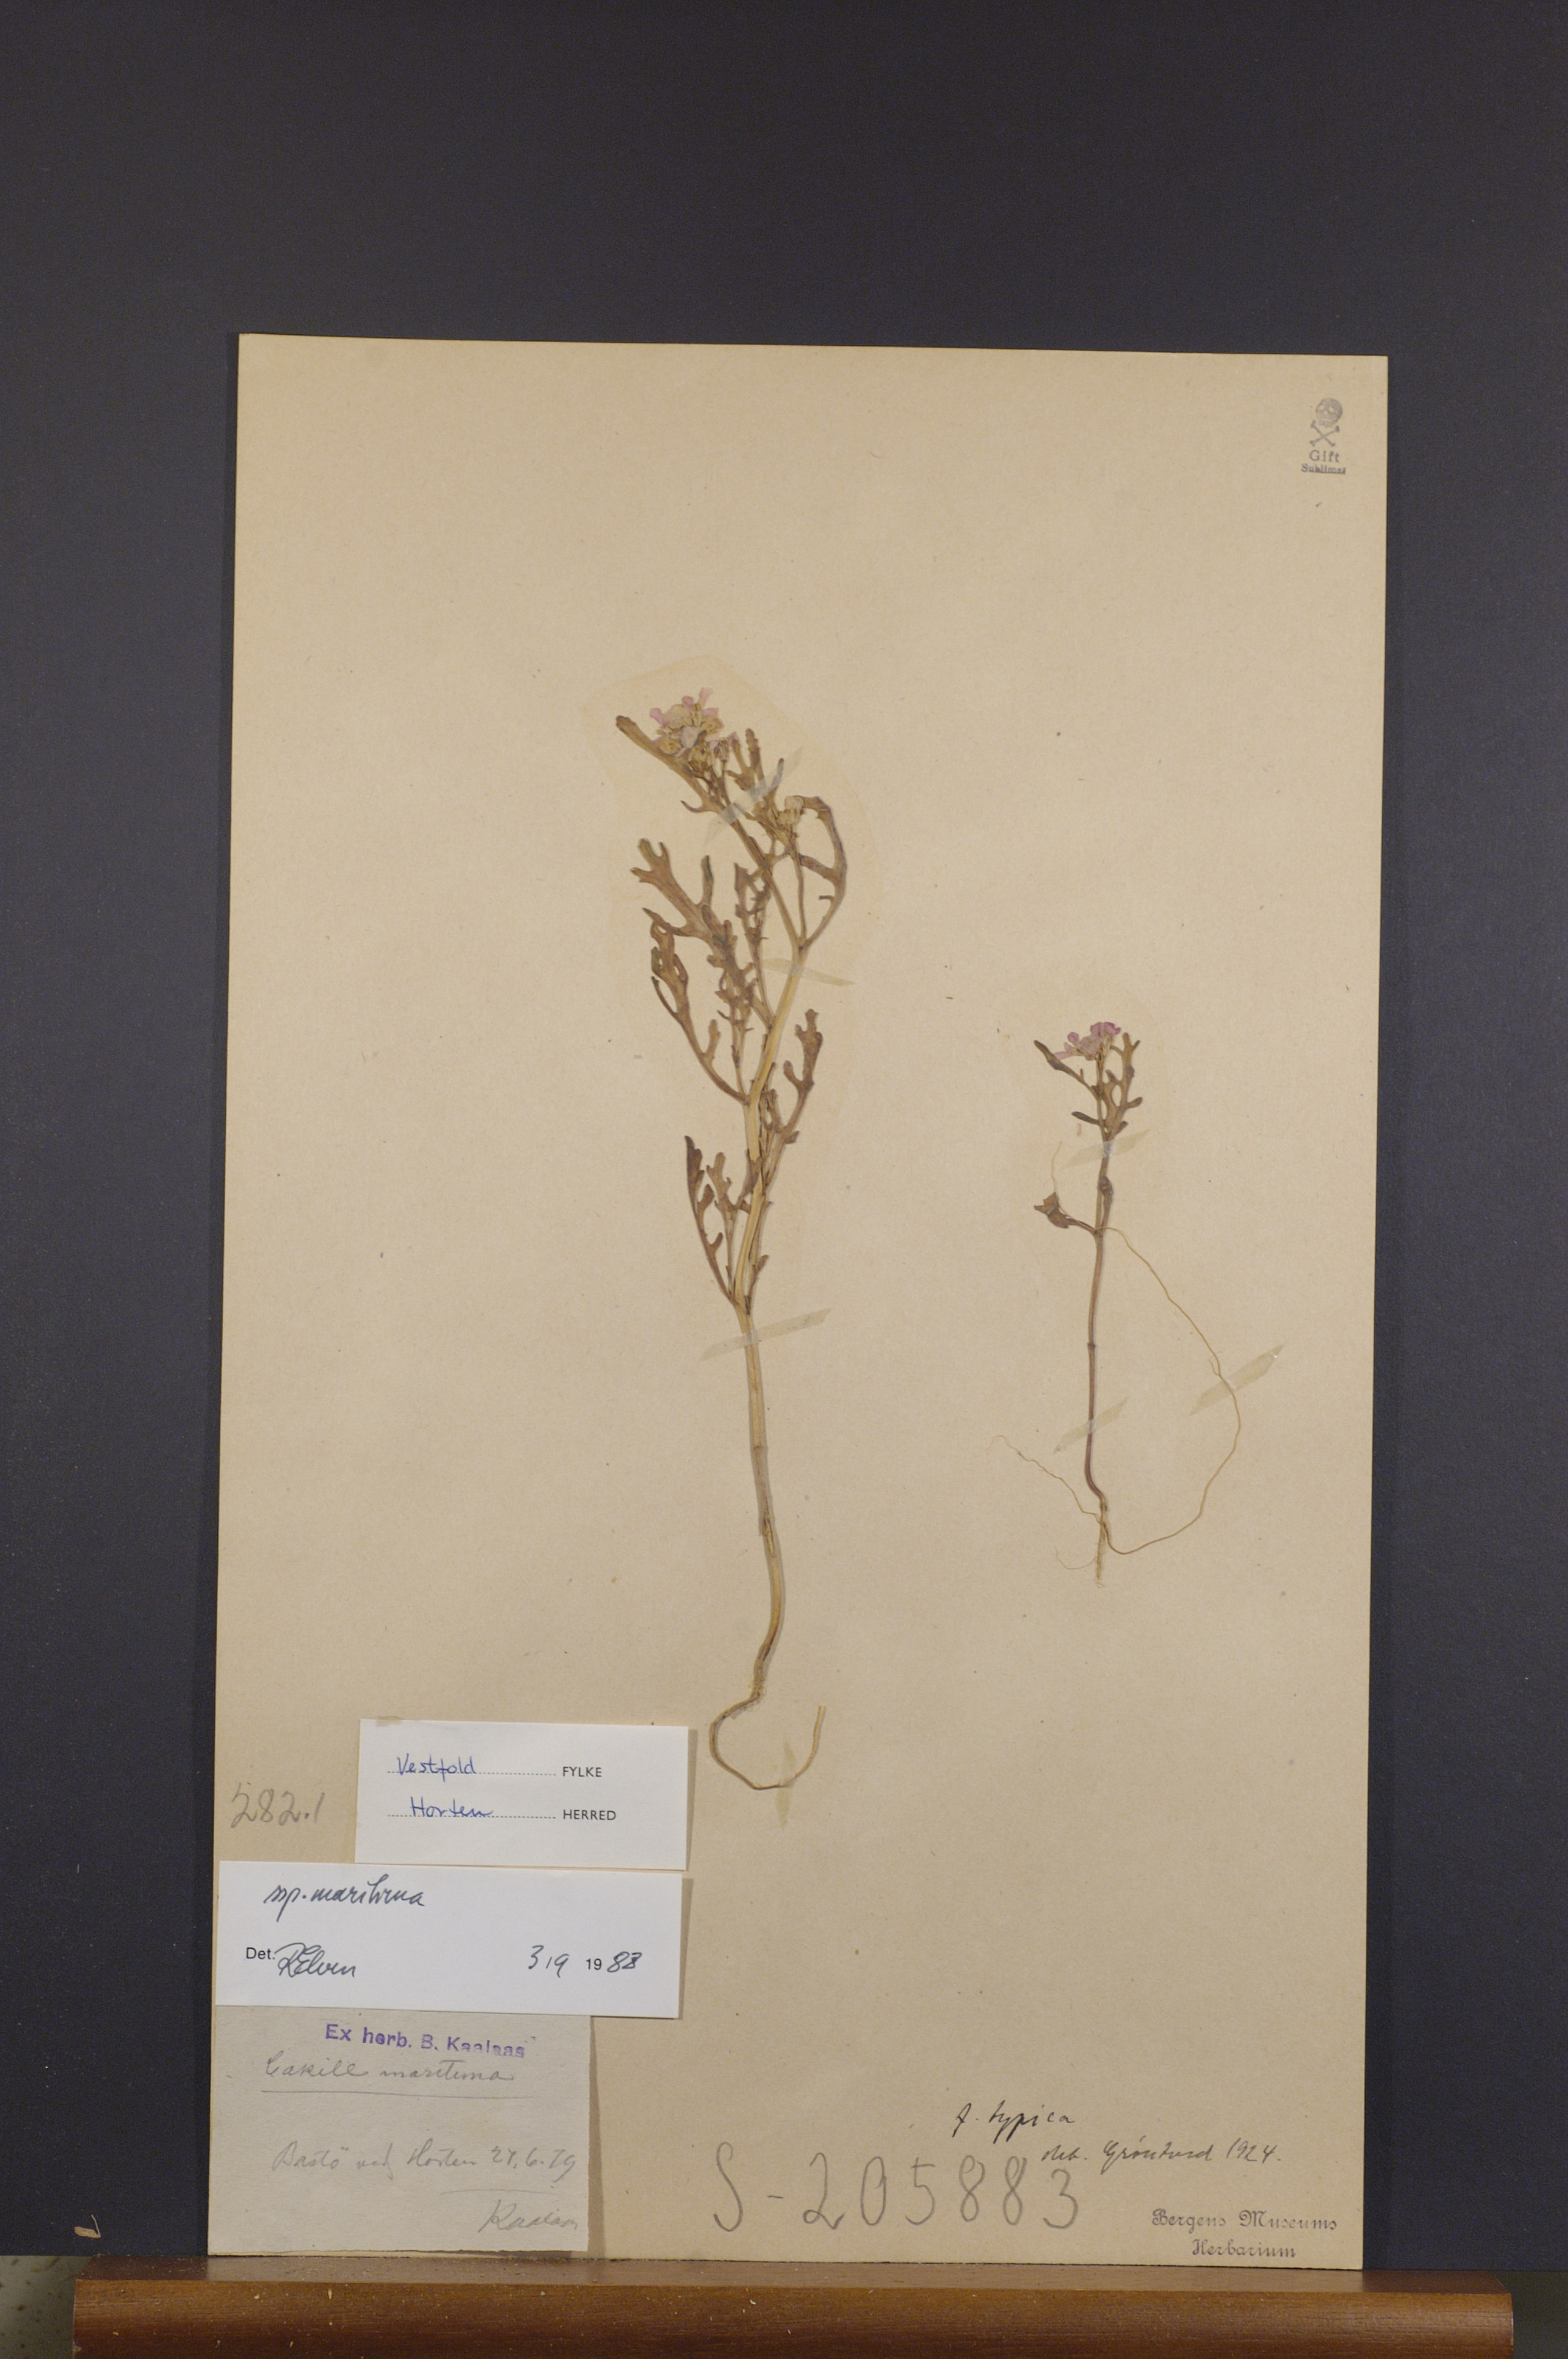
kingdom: Plantae
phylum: Tracheophyta
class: Magnoliopsida
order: Brassicales
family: Brassicaceae
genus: Cakile
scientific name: Cakile maritima
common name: Sea rocket
